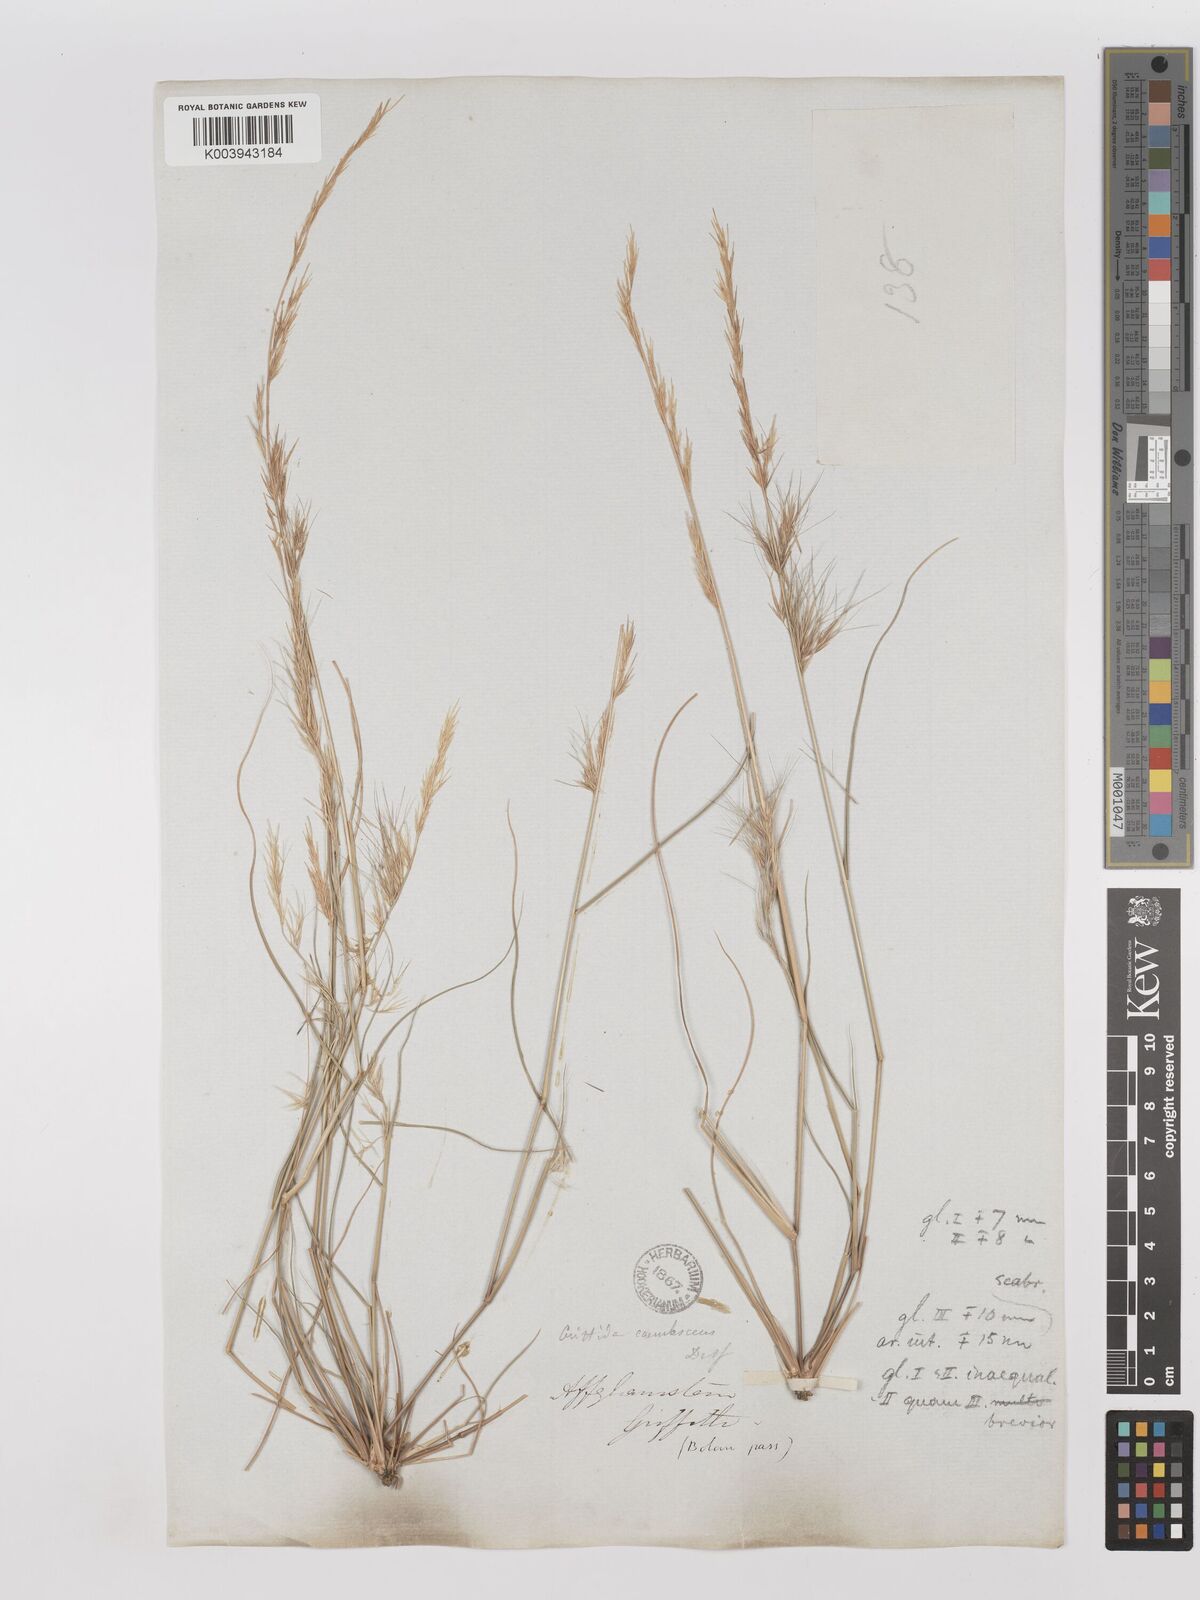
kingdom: Plantae
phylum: Tracheophyta
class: Liliopsida
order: Poales
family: Poaceae
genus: Aristida
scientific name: Aristida adscensionis
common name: Sixweeks threeawn
